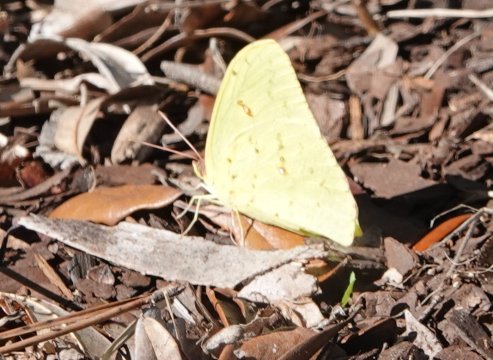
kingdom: Animalia
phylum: Arthropoda
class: Insecta
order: Lepidoptera
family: Pieridae
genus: Phoebis
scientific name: Phoebis sennae
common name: Cloudless Sulphur
